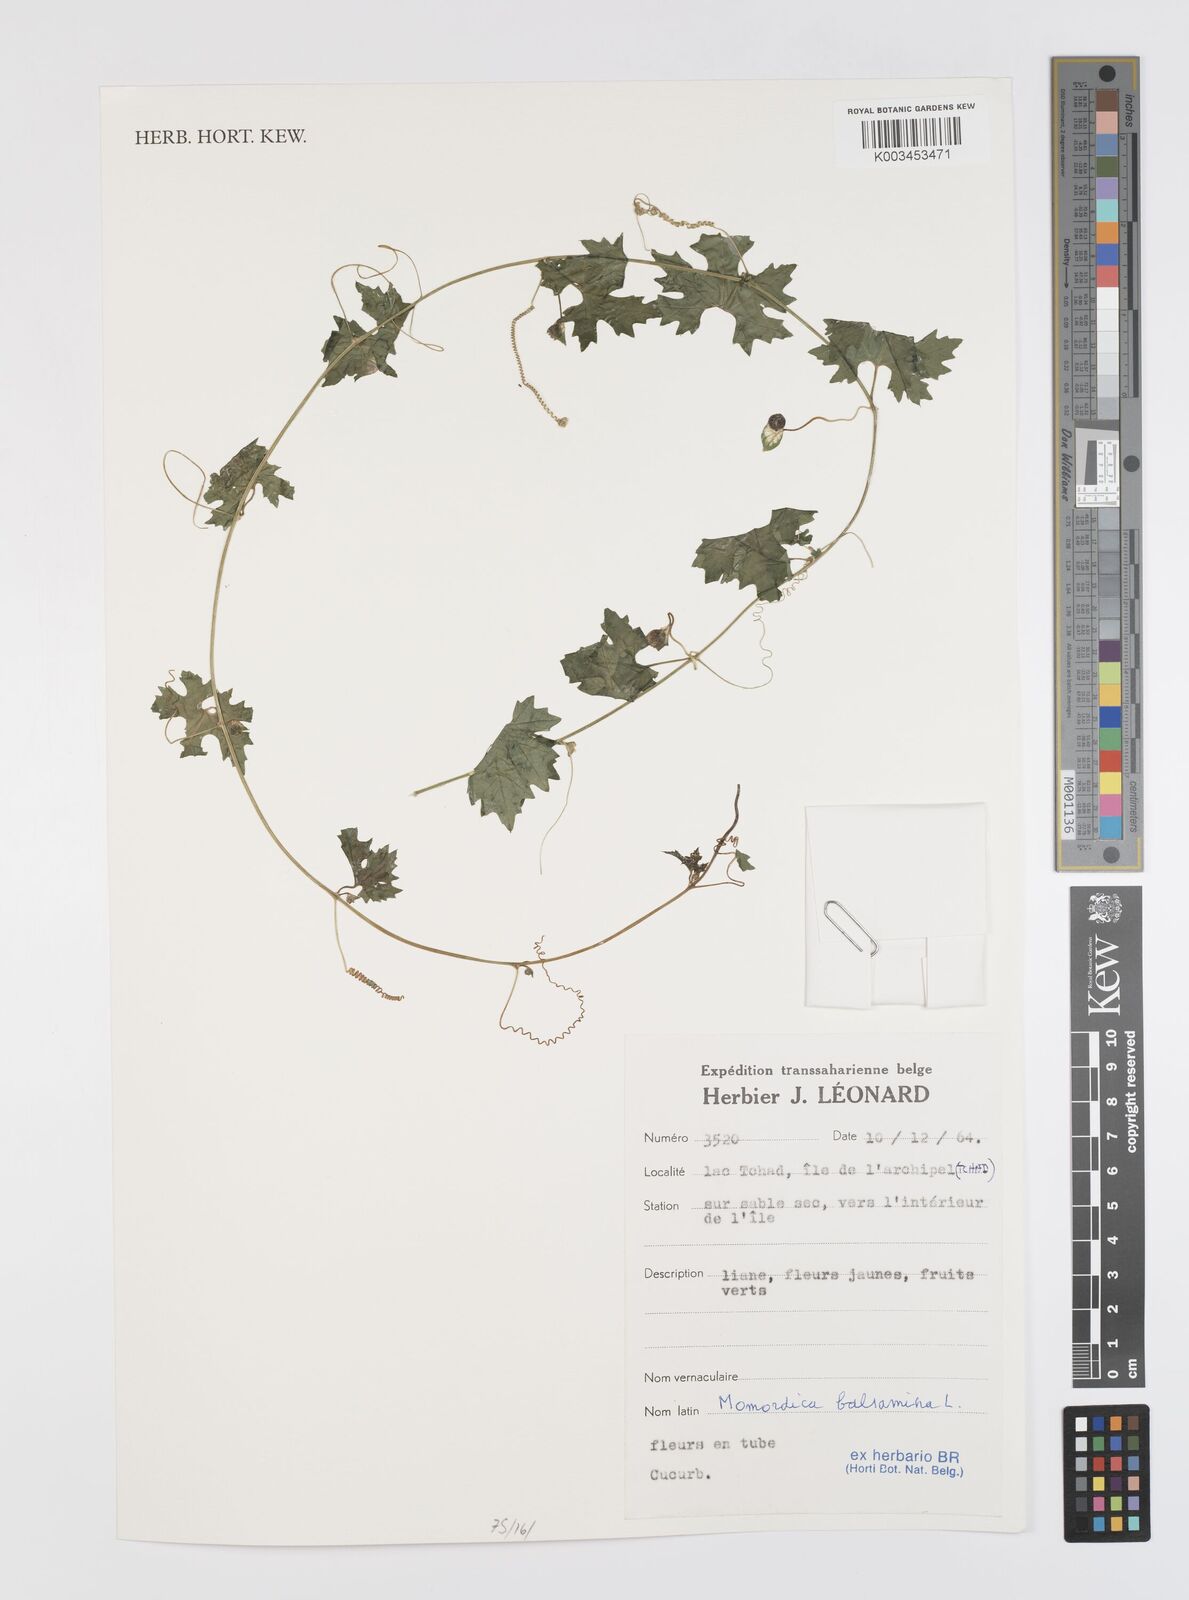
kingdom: Plantae
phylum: Tracheophyta
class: Magnoliopsida
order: Cucurbitales
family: Cucurbitaceae
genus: Momordica
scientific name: Momordica balsamina
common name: Southern balsampear
